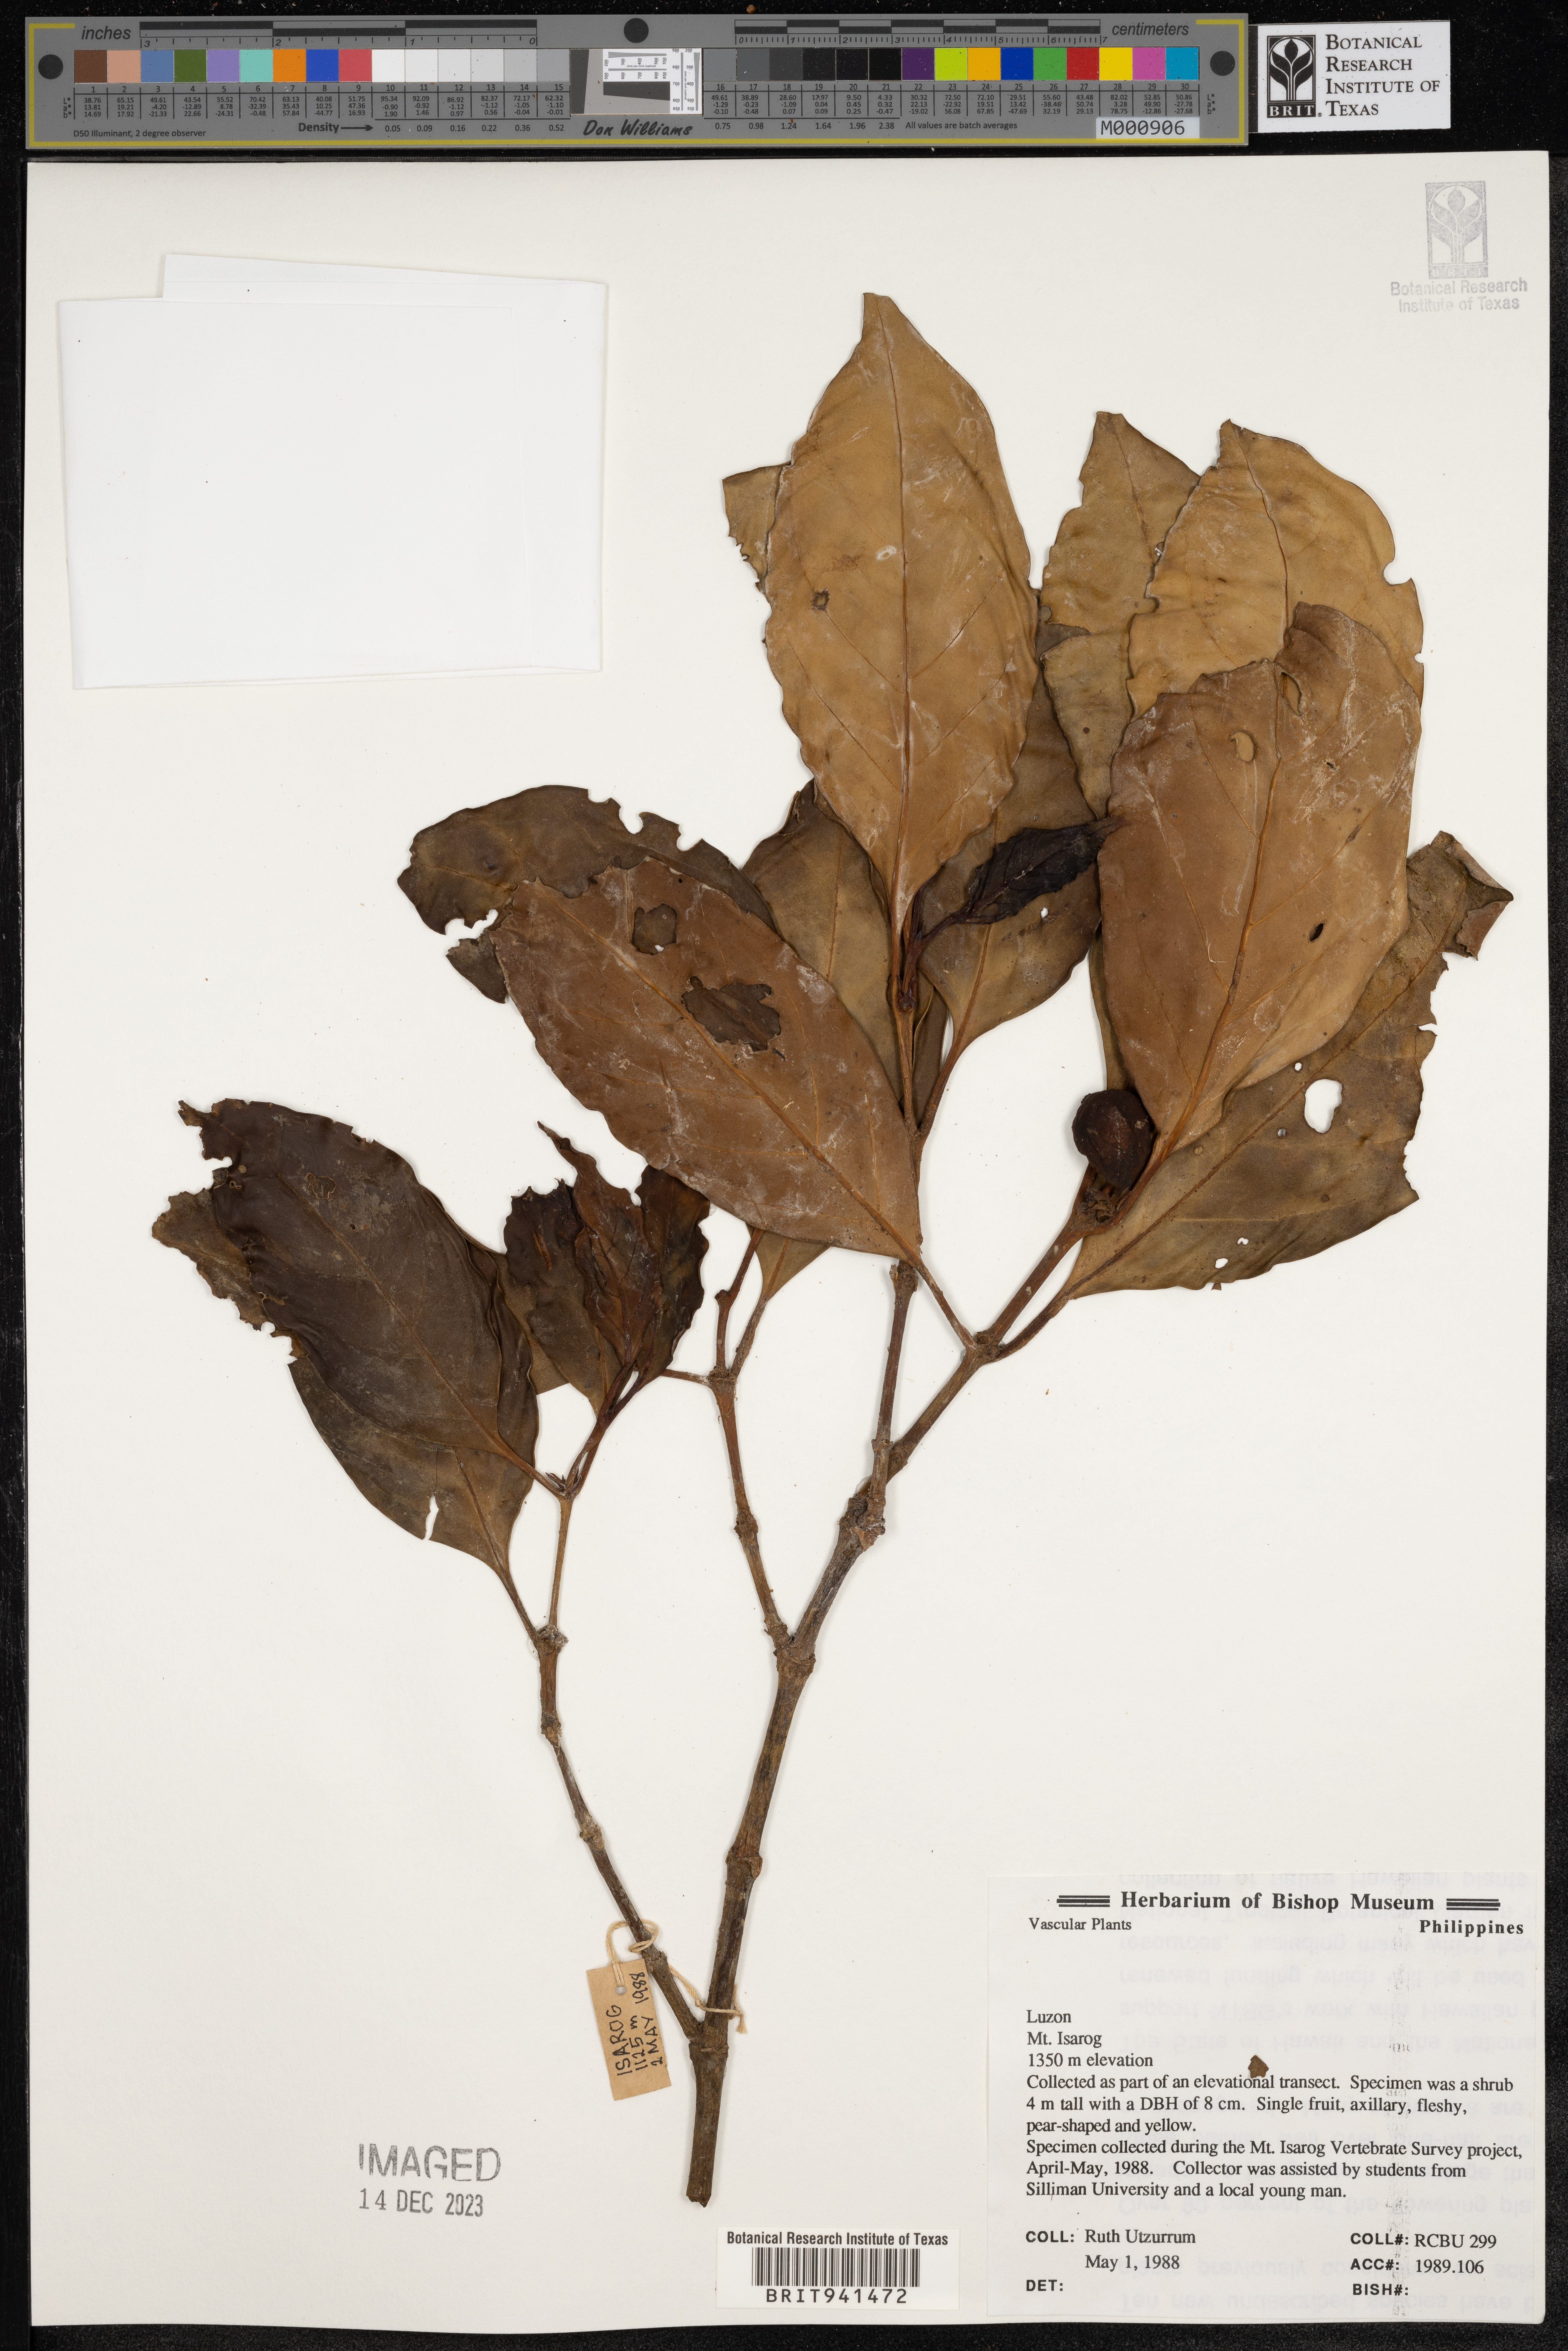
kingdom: Plantae
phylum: Tracheophyta
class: Magnoliopsida
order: Gentianales
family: Rubiaceae
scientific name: Rubiaceae
